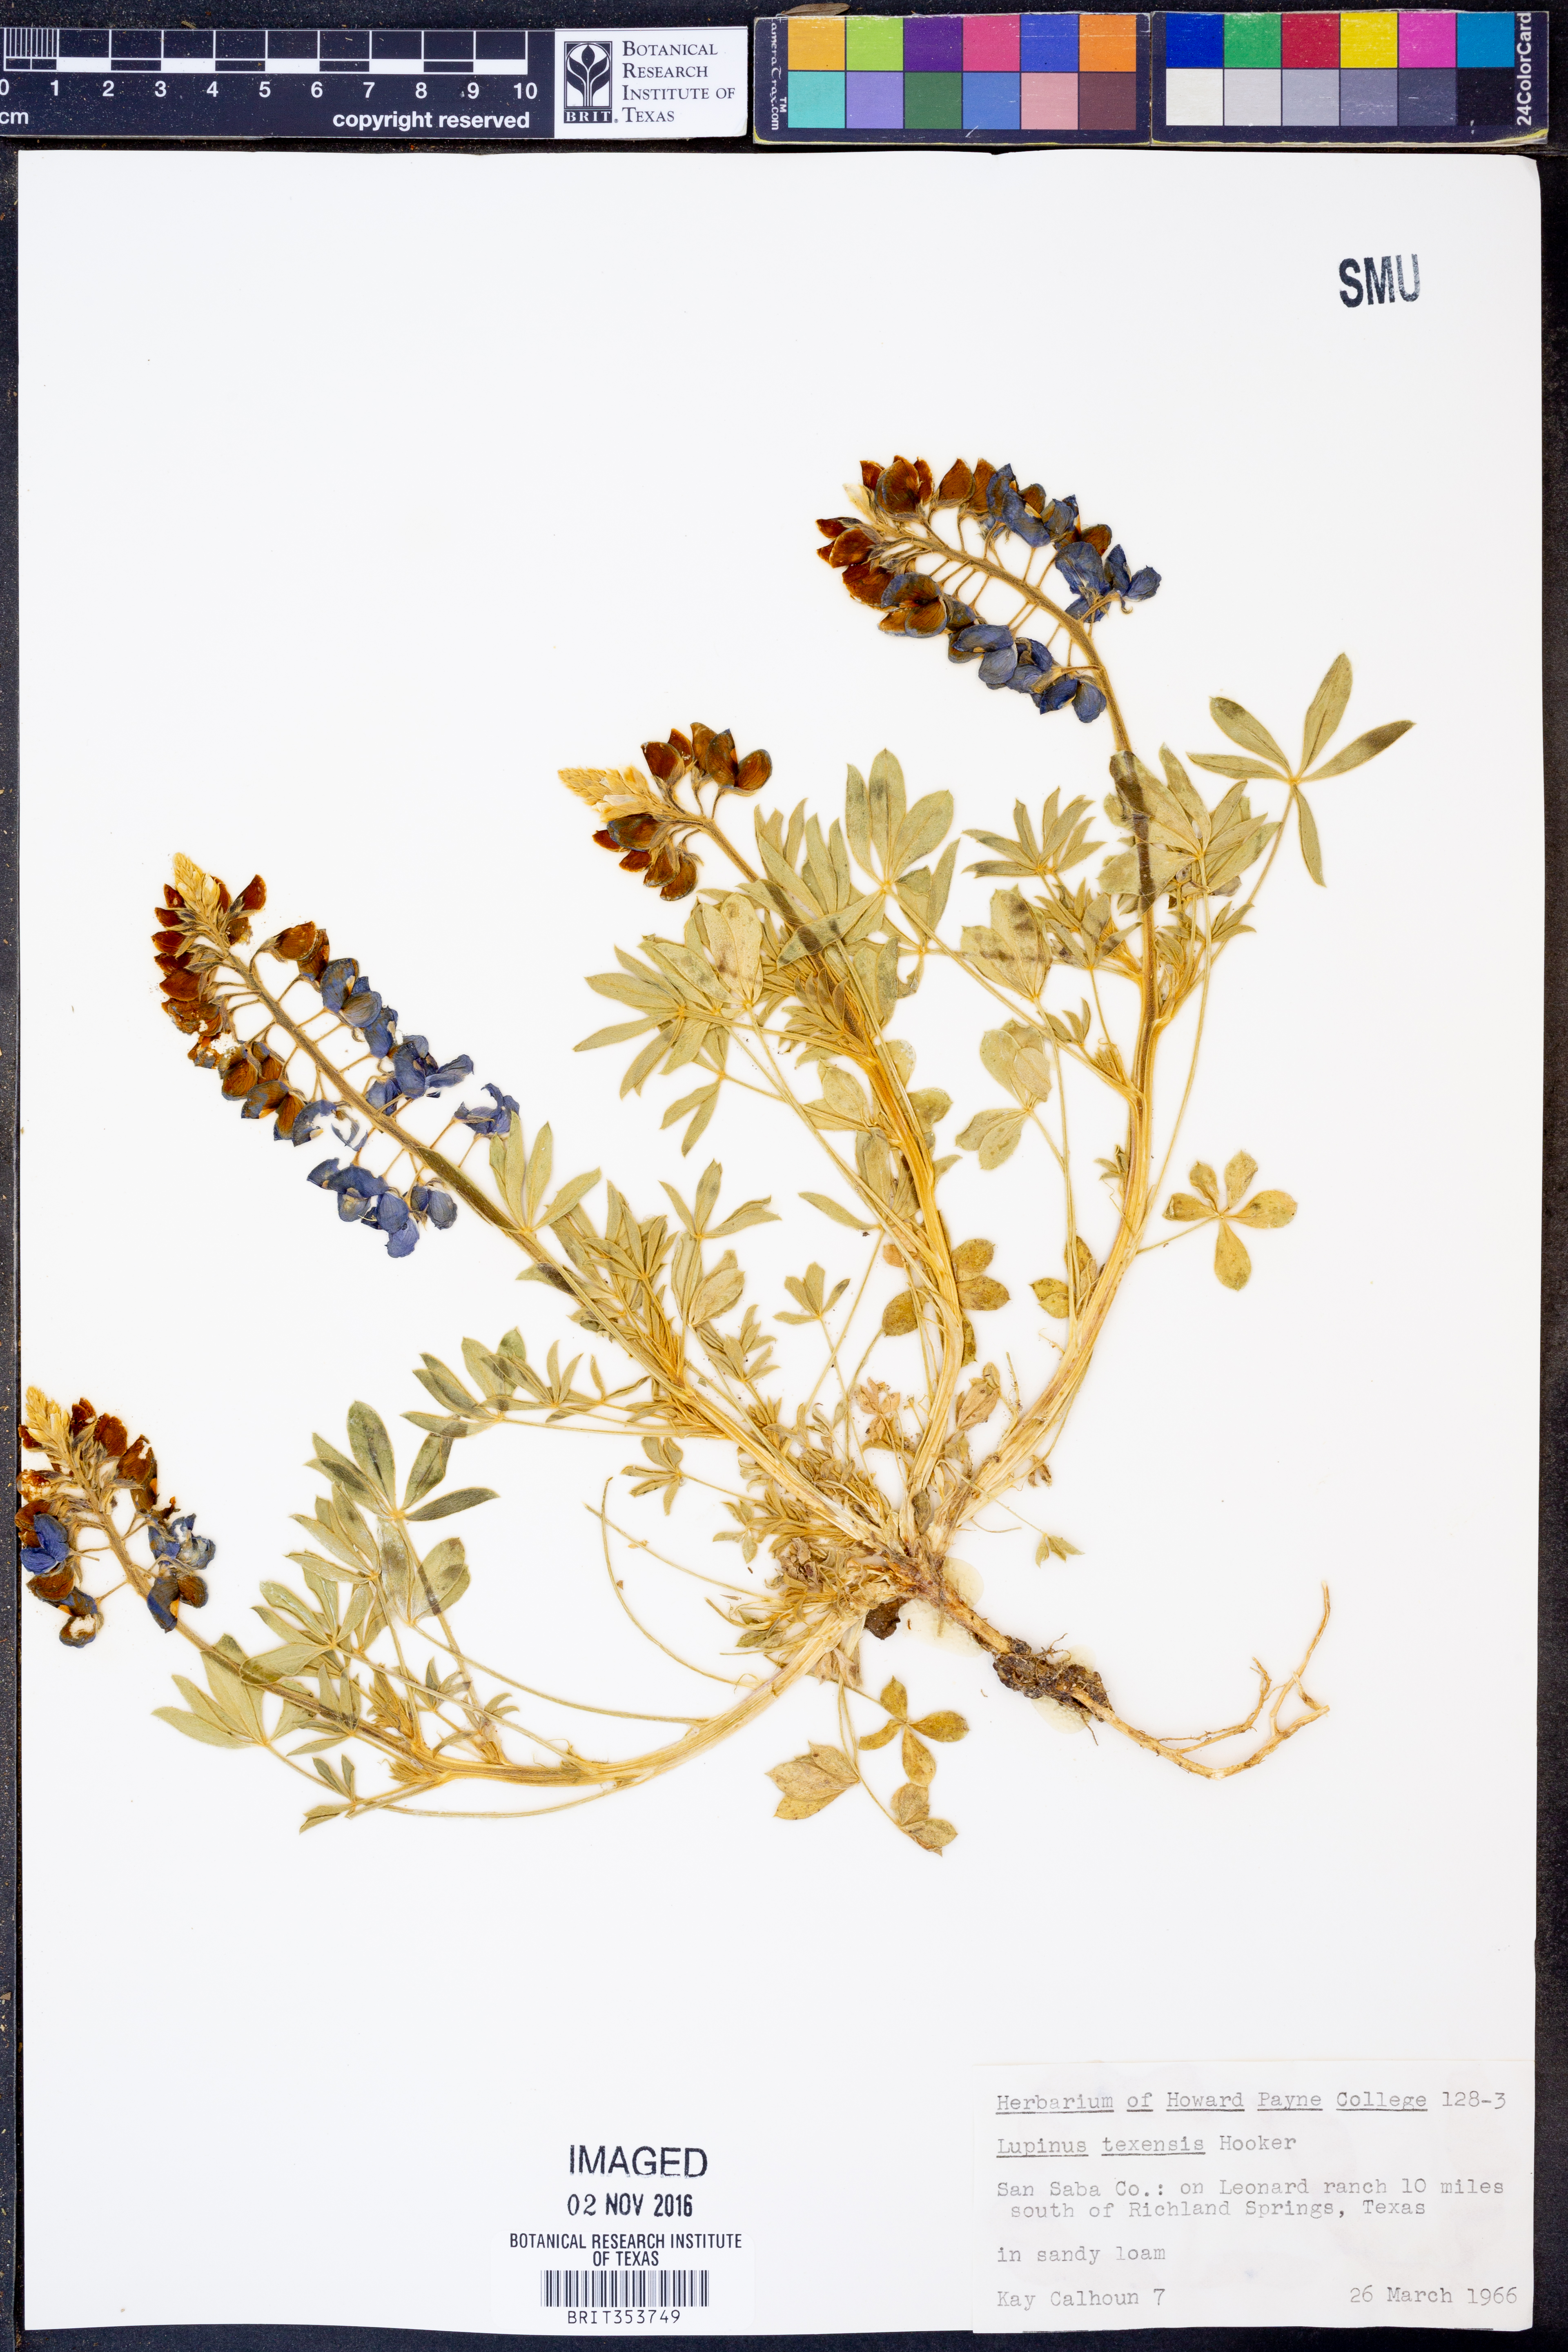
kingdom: Plantae
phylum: Tracheophyta
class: Magnoliopsida
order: Fabales
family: Fabaceae
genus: Lupinus
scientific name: Lupinus texensis
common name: Texas bluebonnet
